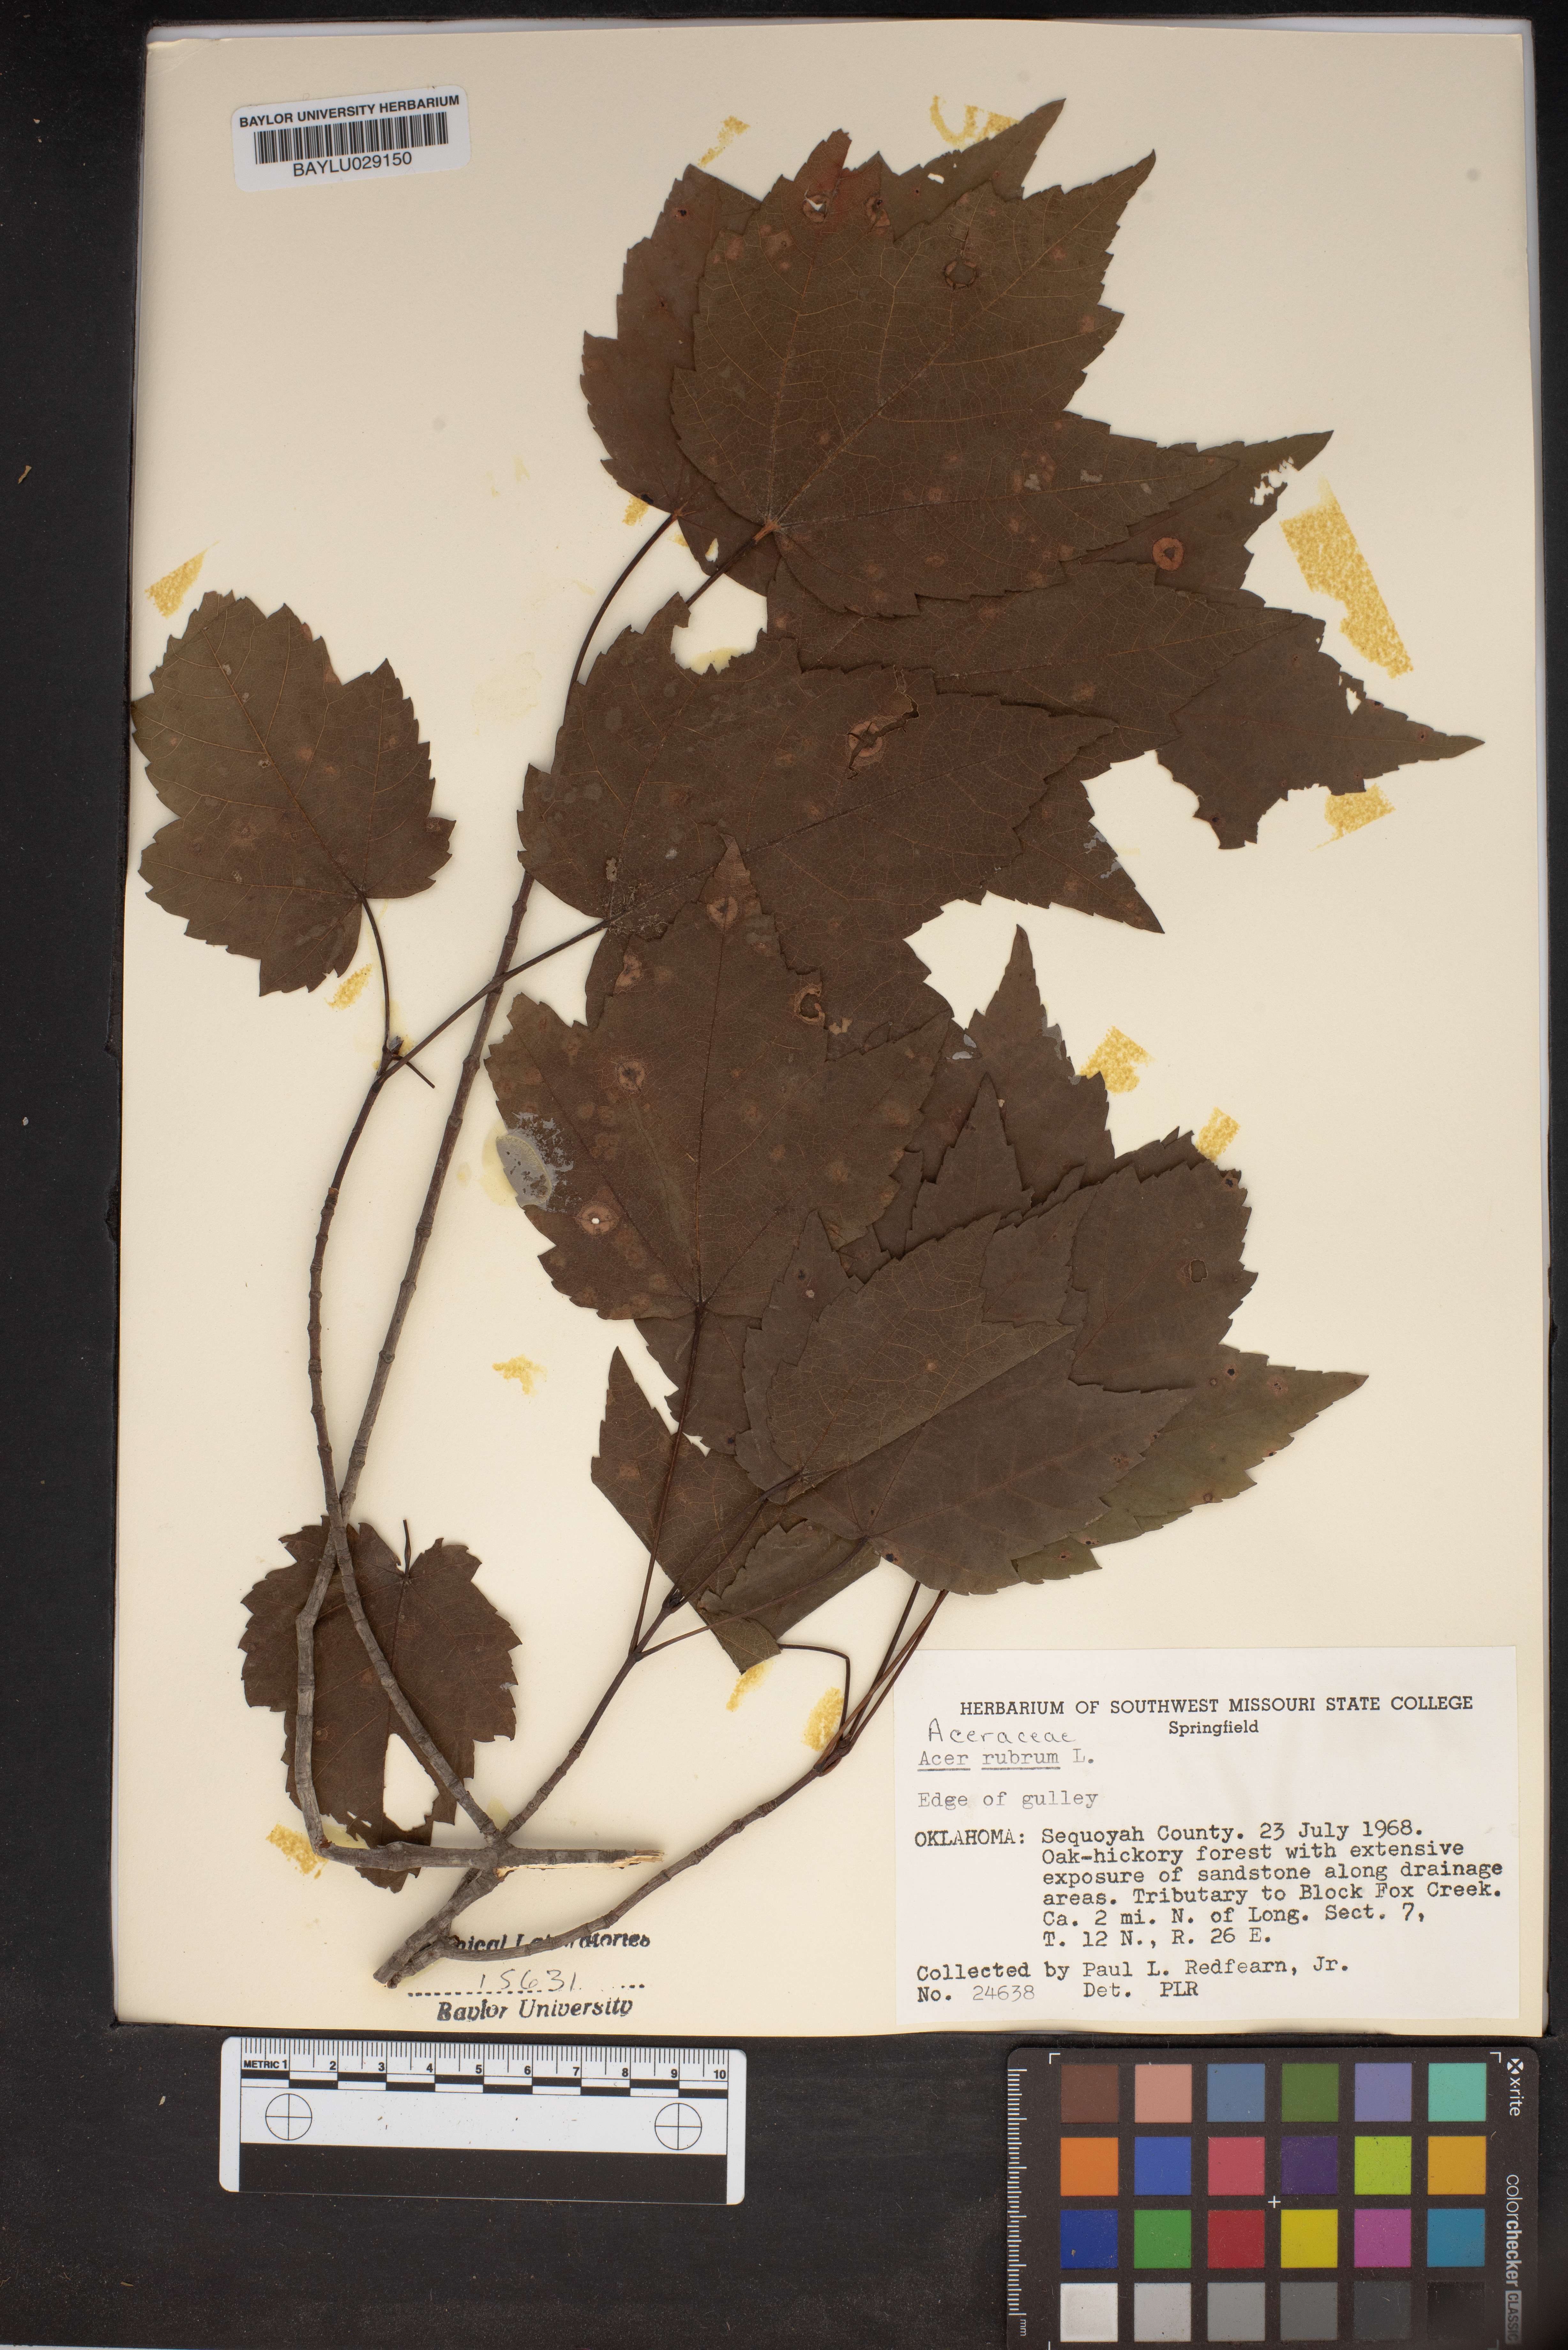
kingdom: Plantae
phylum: Tracheophyta
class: Magnoliopsida
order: Sapindales
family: Sapindaceae
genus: Acer
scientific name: Acer rubrum
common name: Red maple
